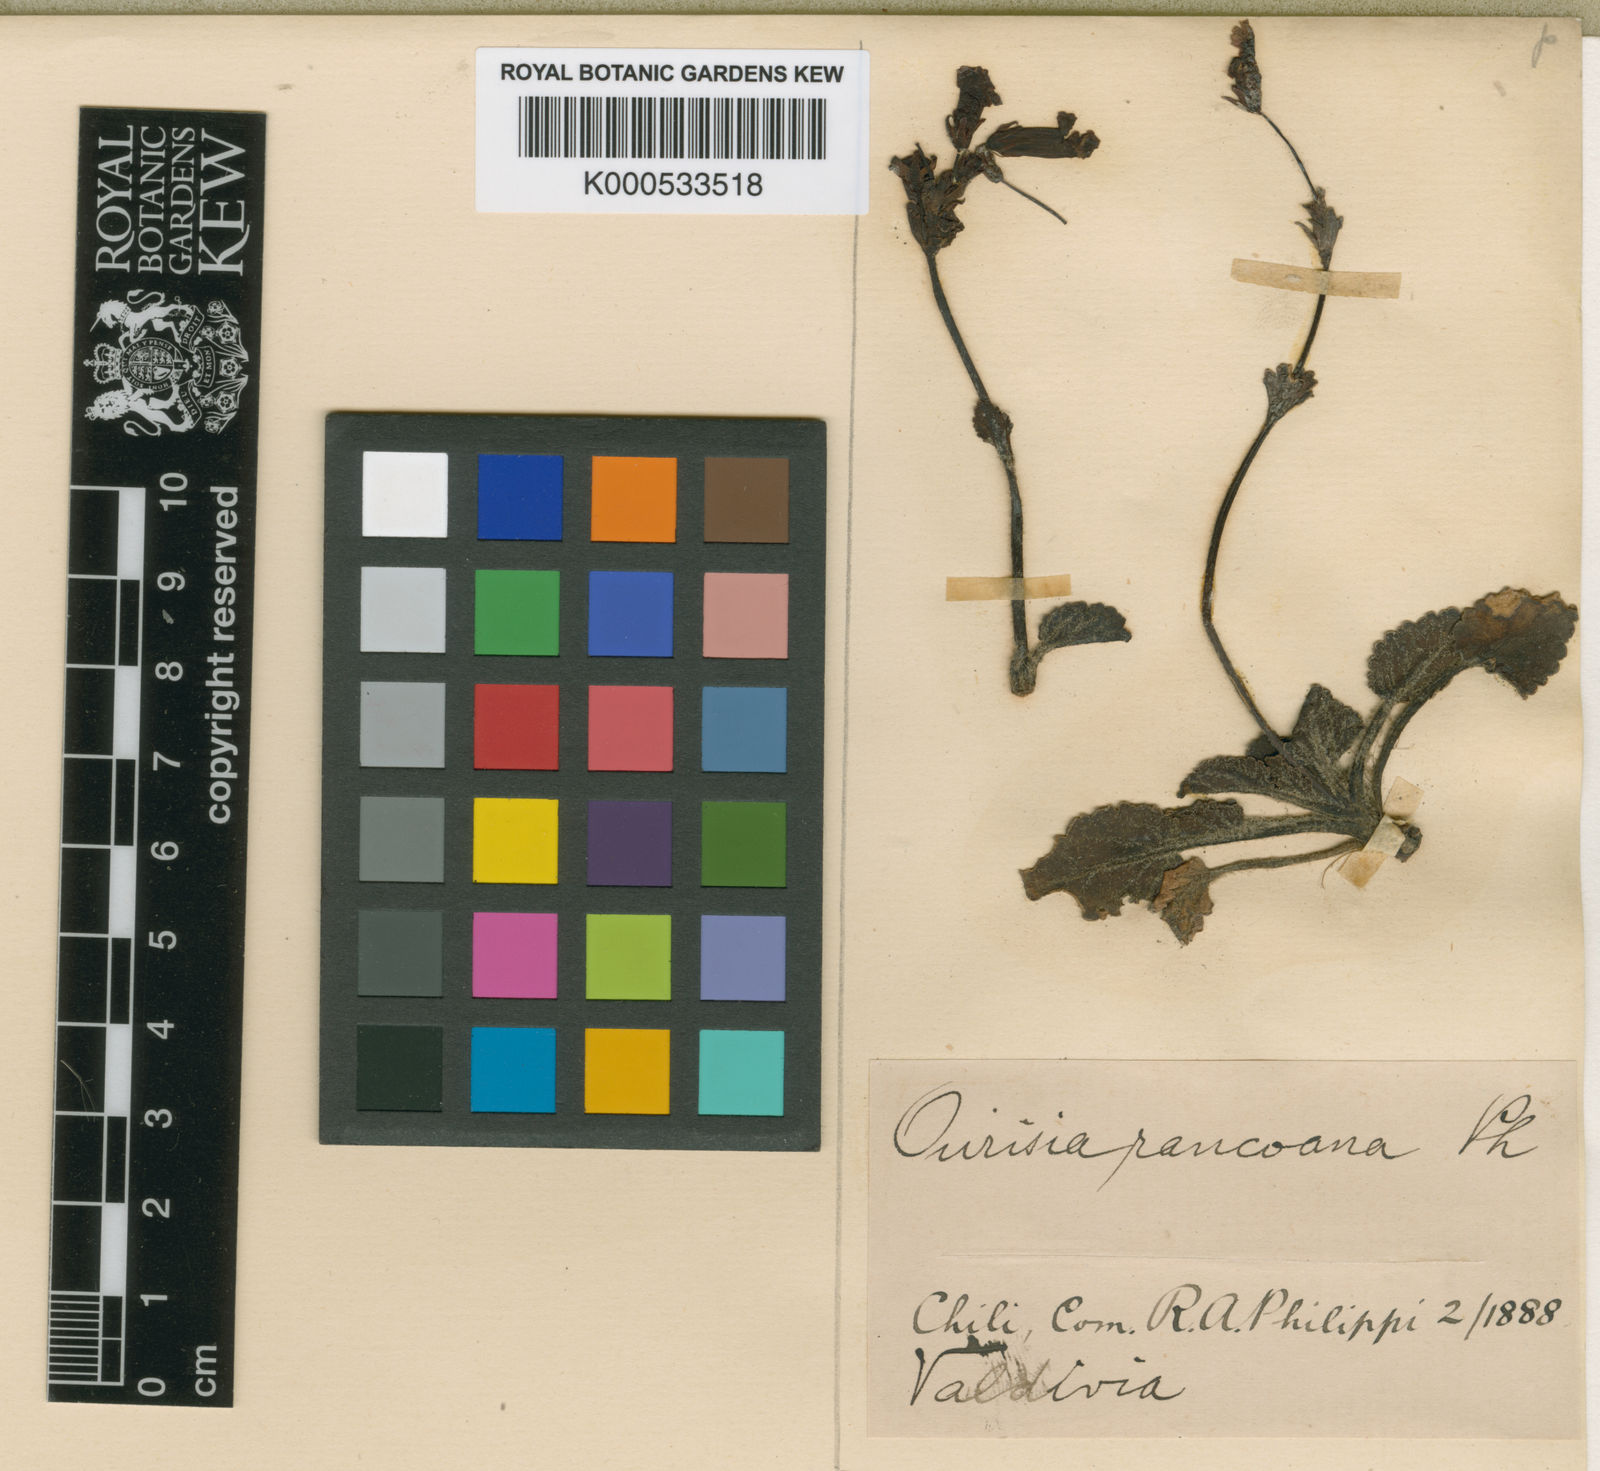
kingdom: Plantae
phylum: Tracheophyta
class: Magnoliopsida
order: Lamiales
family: Plantaginaceae
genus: Ourisia
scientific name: Ourisia alpina
